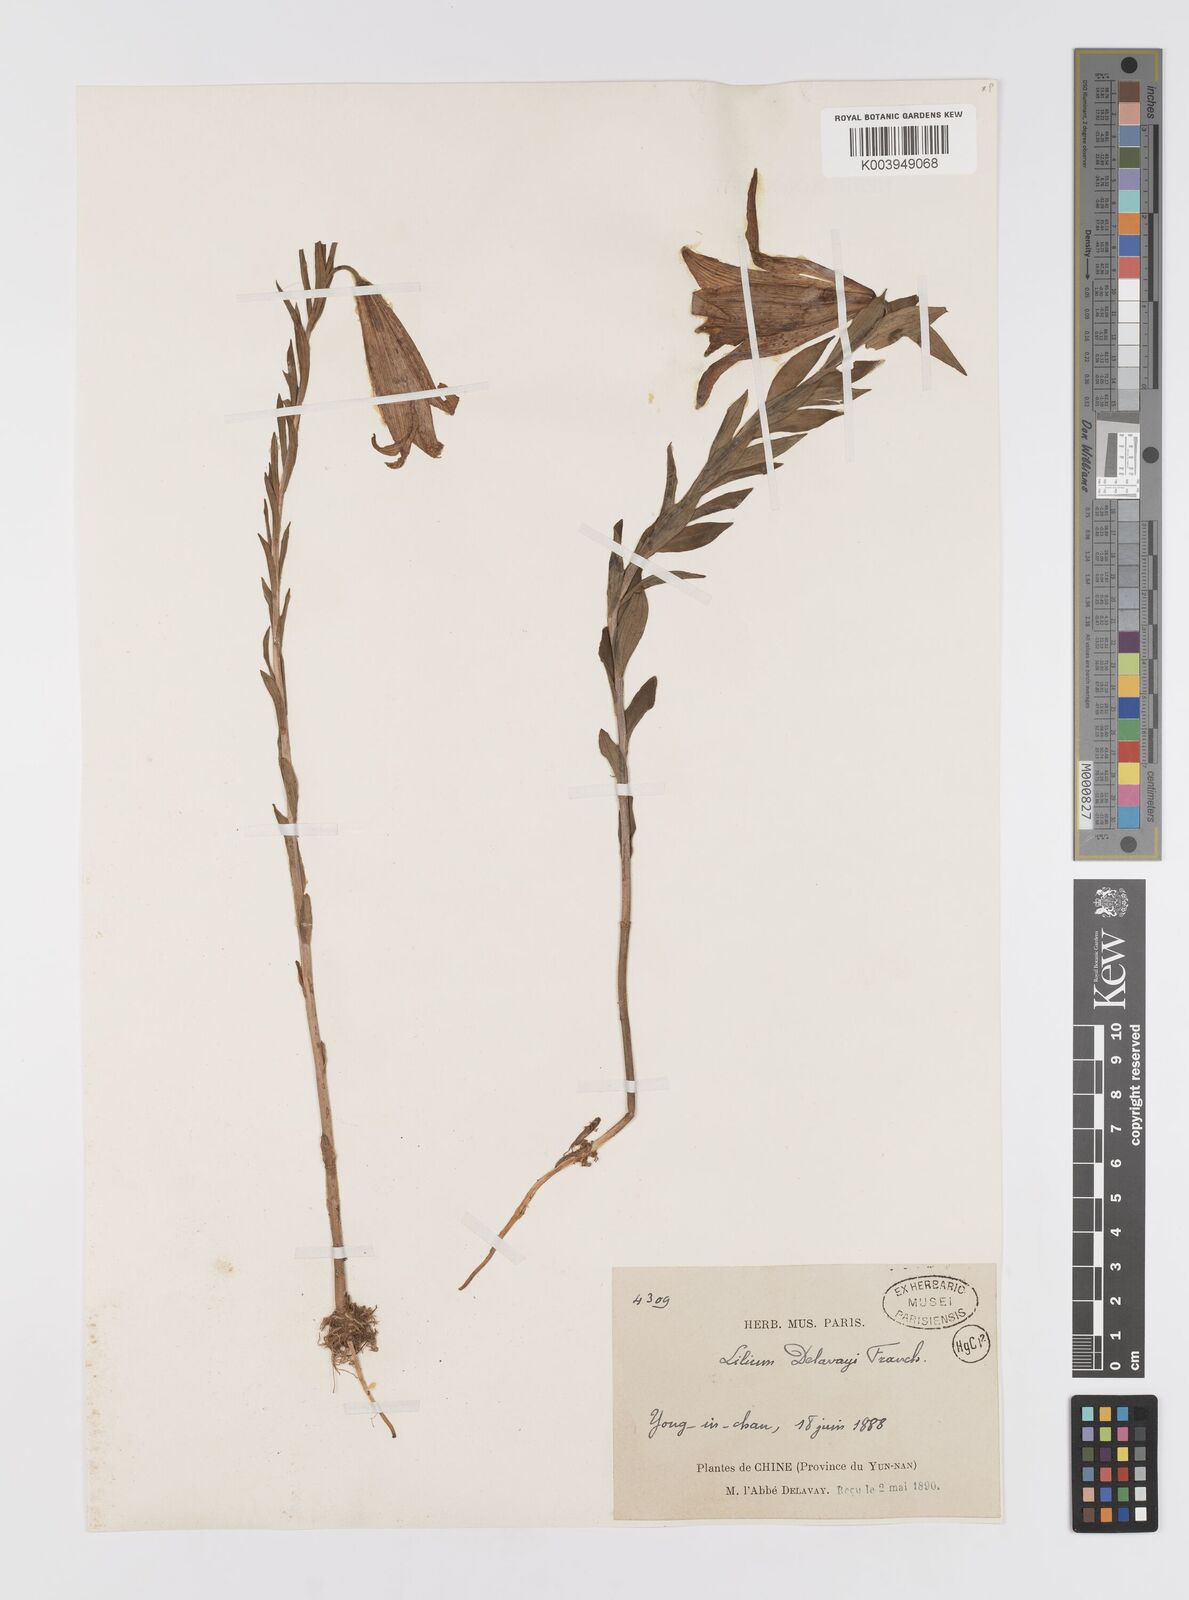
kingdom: Plantae
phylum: Tracheophyta
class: Liliopsida
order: Liliales
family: Liliaceae
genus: Lilium
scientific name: Lilium bakerianum
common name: Baker's lily
